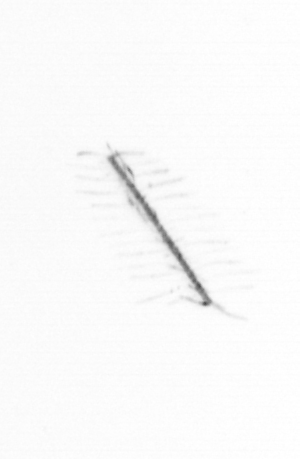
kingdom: Chromista
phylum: Ochrophyta
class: Bacillariophyceae
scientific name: Bacillariophyceae
